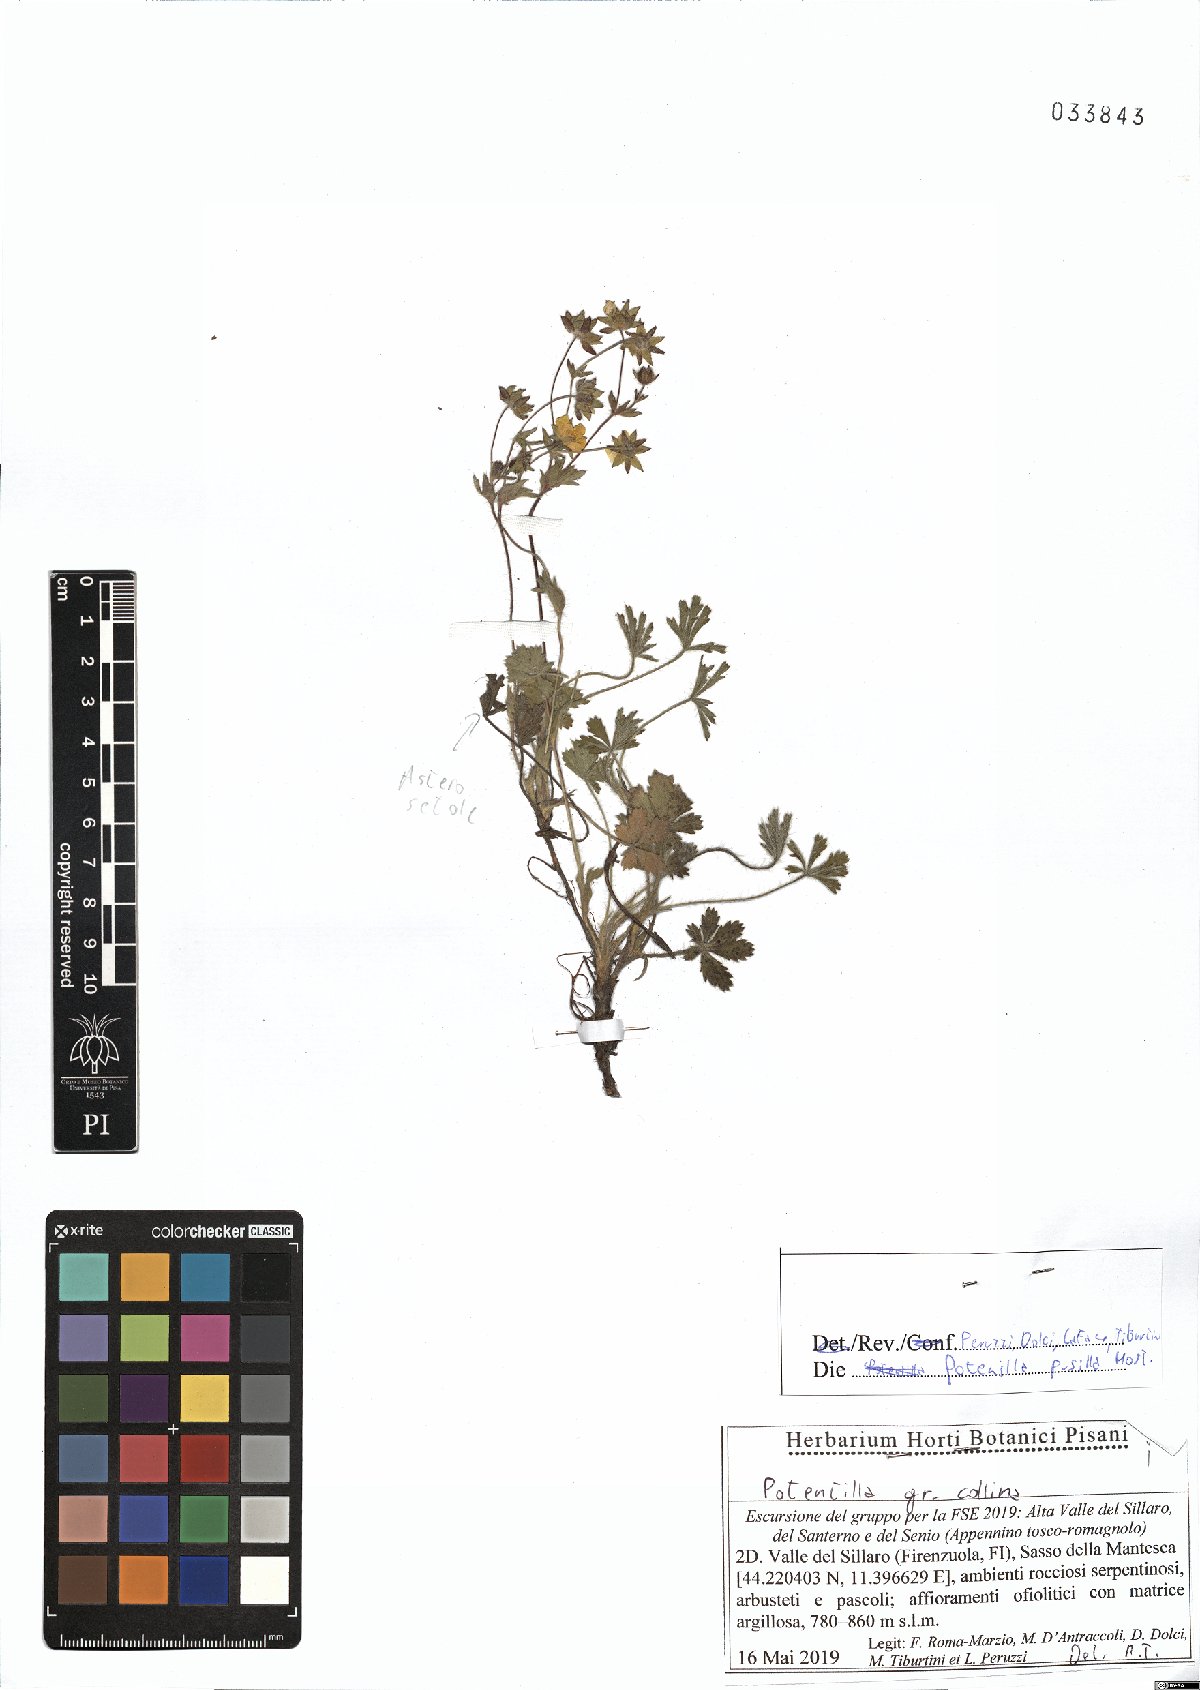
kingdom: Plantae
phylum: Tracheophyta
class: Magnoliopsida
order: Rosales
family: Rosaceae
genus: Potentilla
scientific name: Potentilla pusilla
